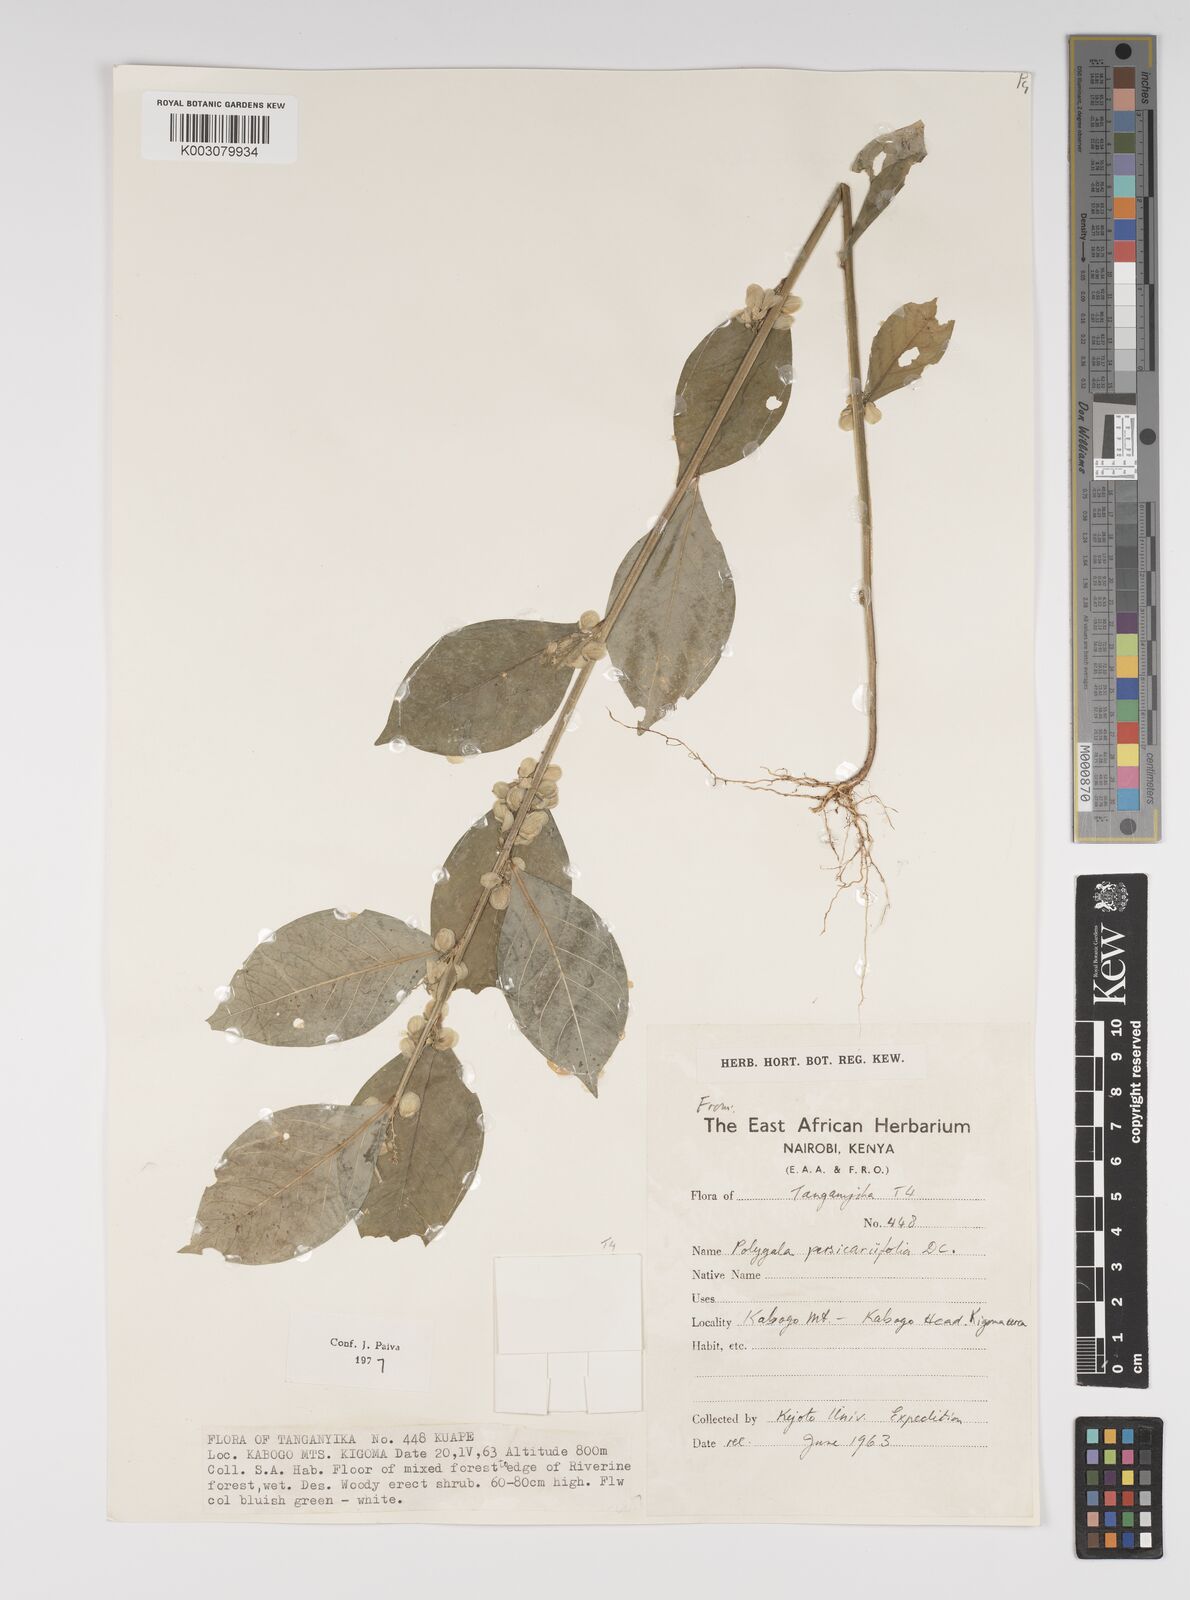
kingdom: Plantae
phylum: Tracheophyta
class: Magnoliopsida
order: Fabales
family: Polygalaceae
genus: Polygala
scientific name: Polygala persicariifolia
